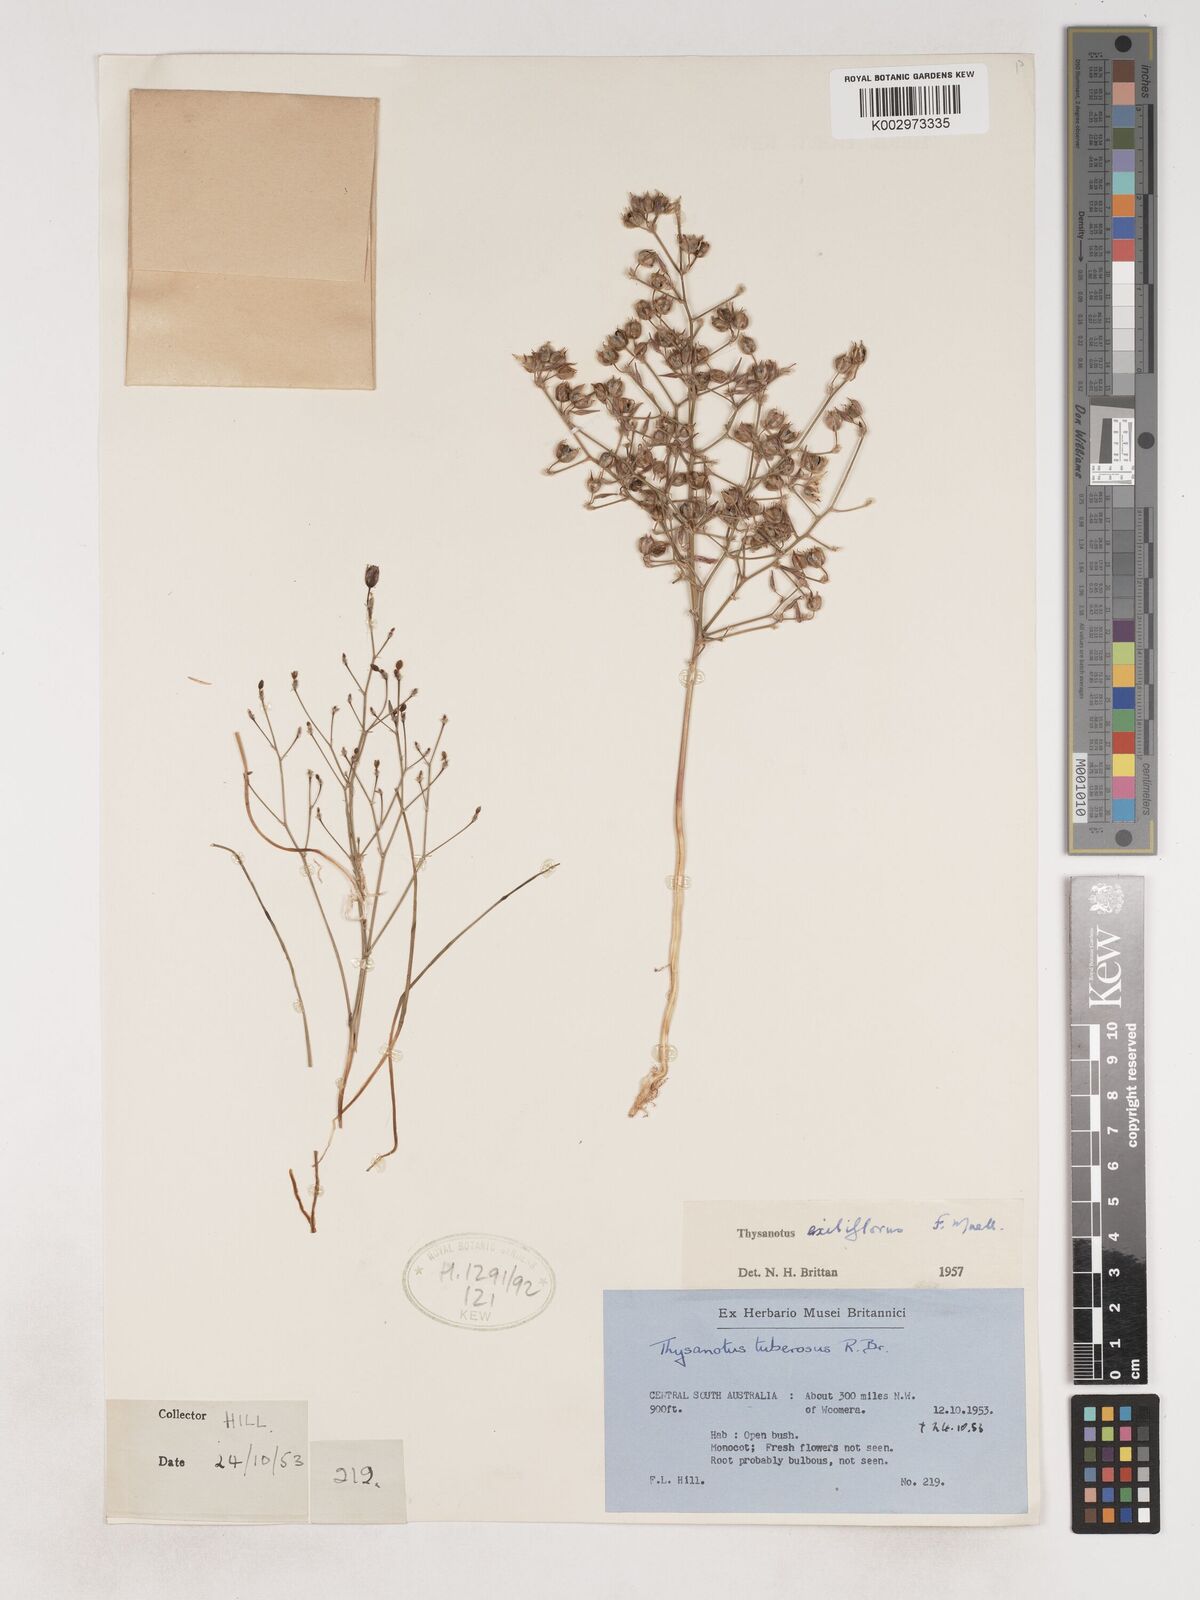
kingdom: Plantae
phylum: Tracheophyta
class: Liliopsida
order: Asparagales
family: Asparagaceae
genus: Thysanotus
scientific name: Thysanotus tuberosus
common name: Common fringed-lily
